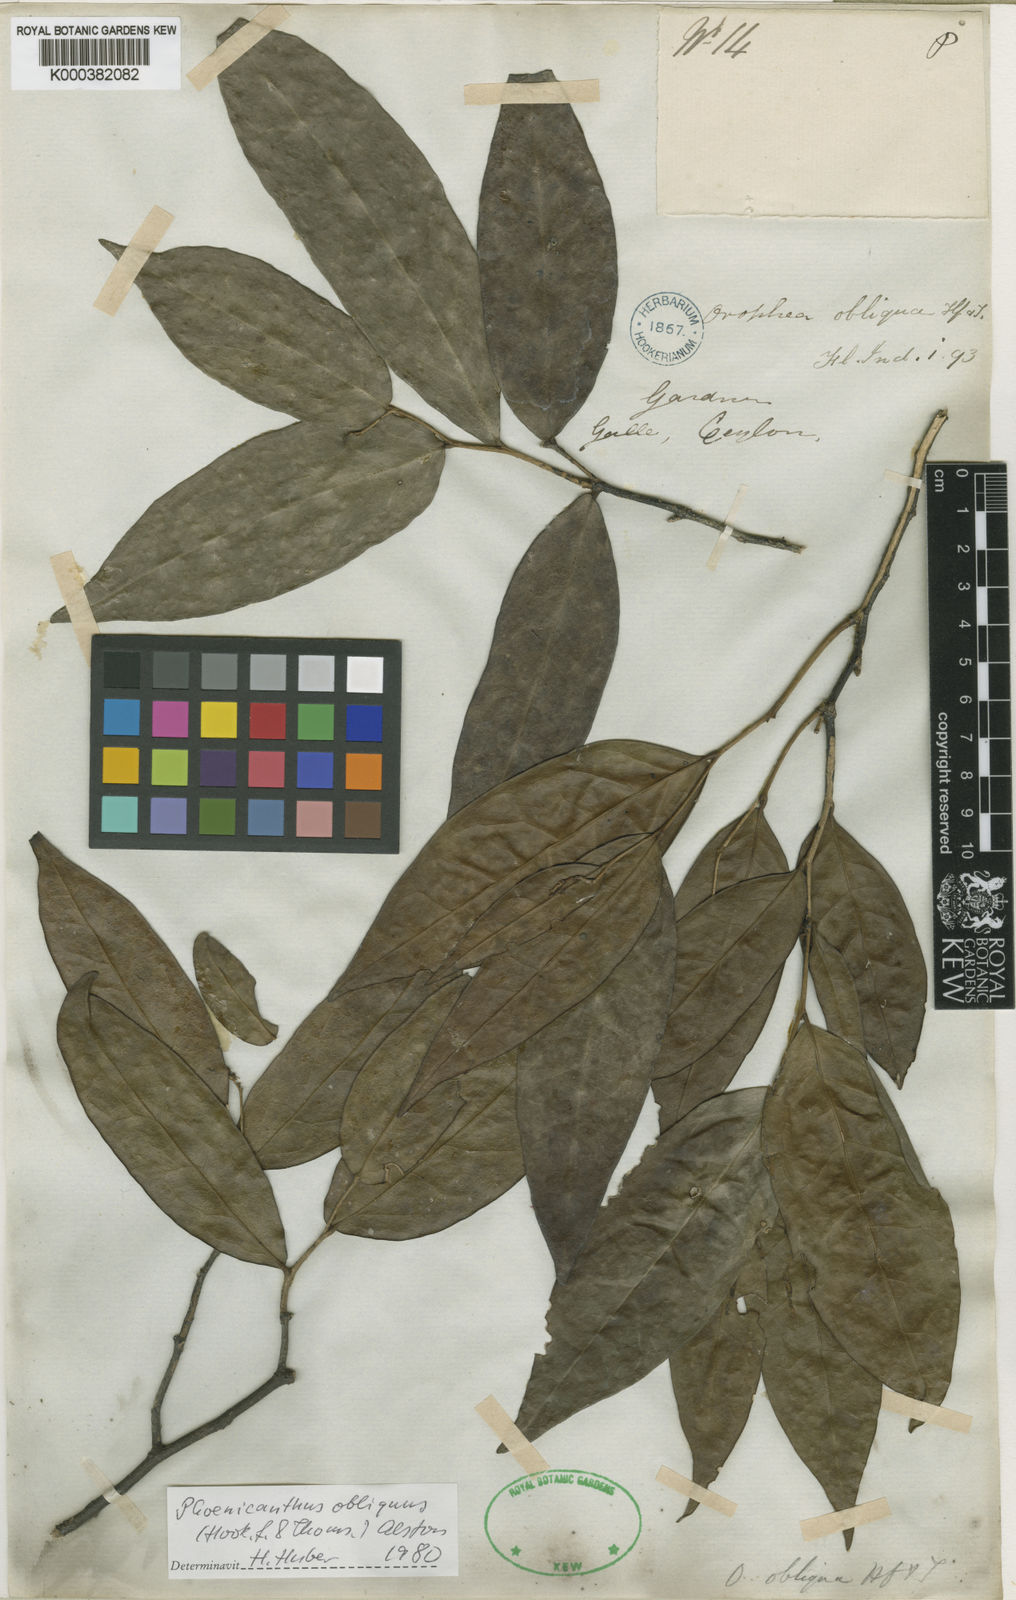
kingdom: Plantae
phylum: Tracheophyta
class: Magnoliopsida
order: Magnoliales
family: Annonaceae
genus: Phoenicanthus
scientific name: Phoenicanthus obliquus
